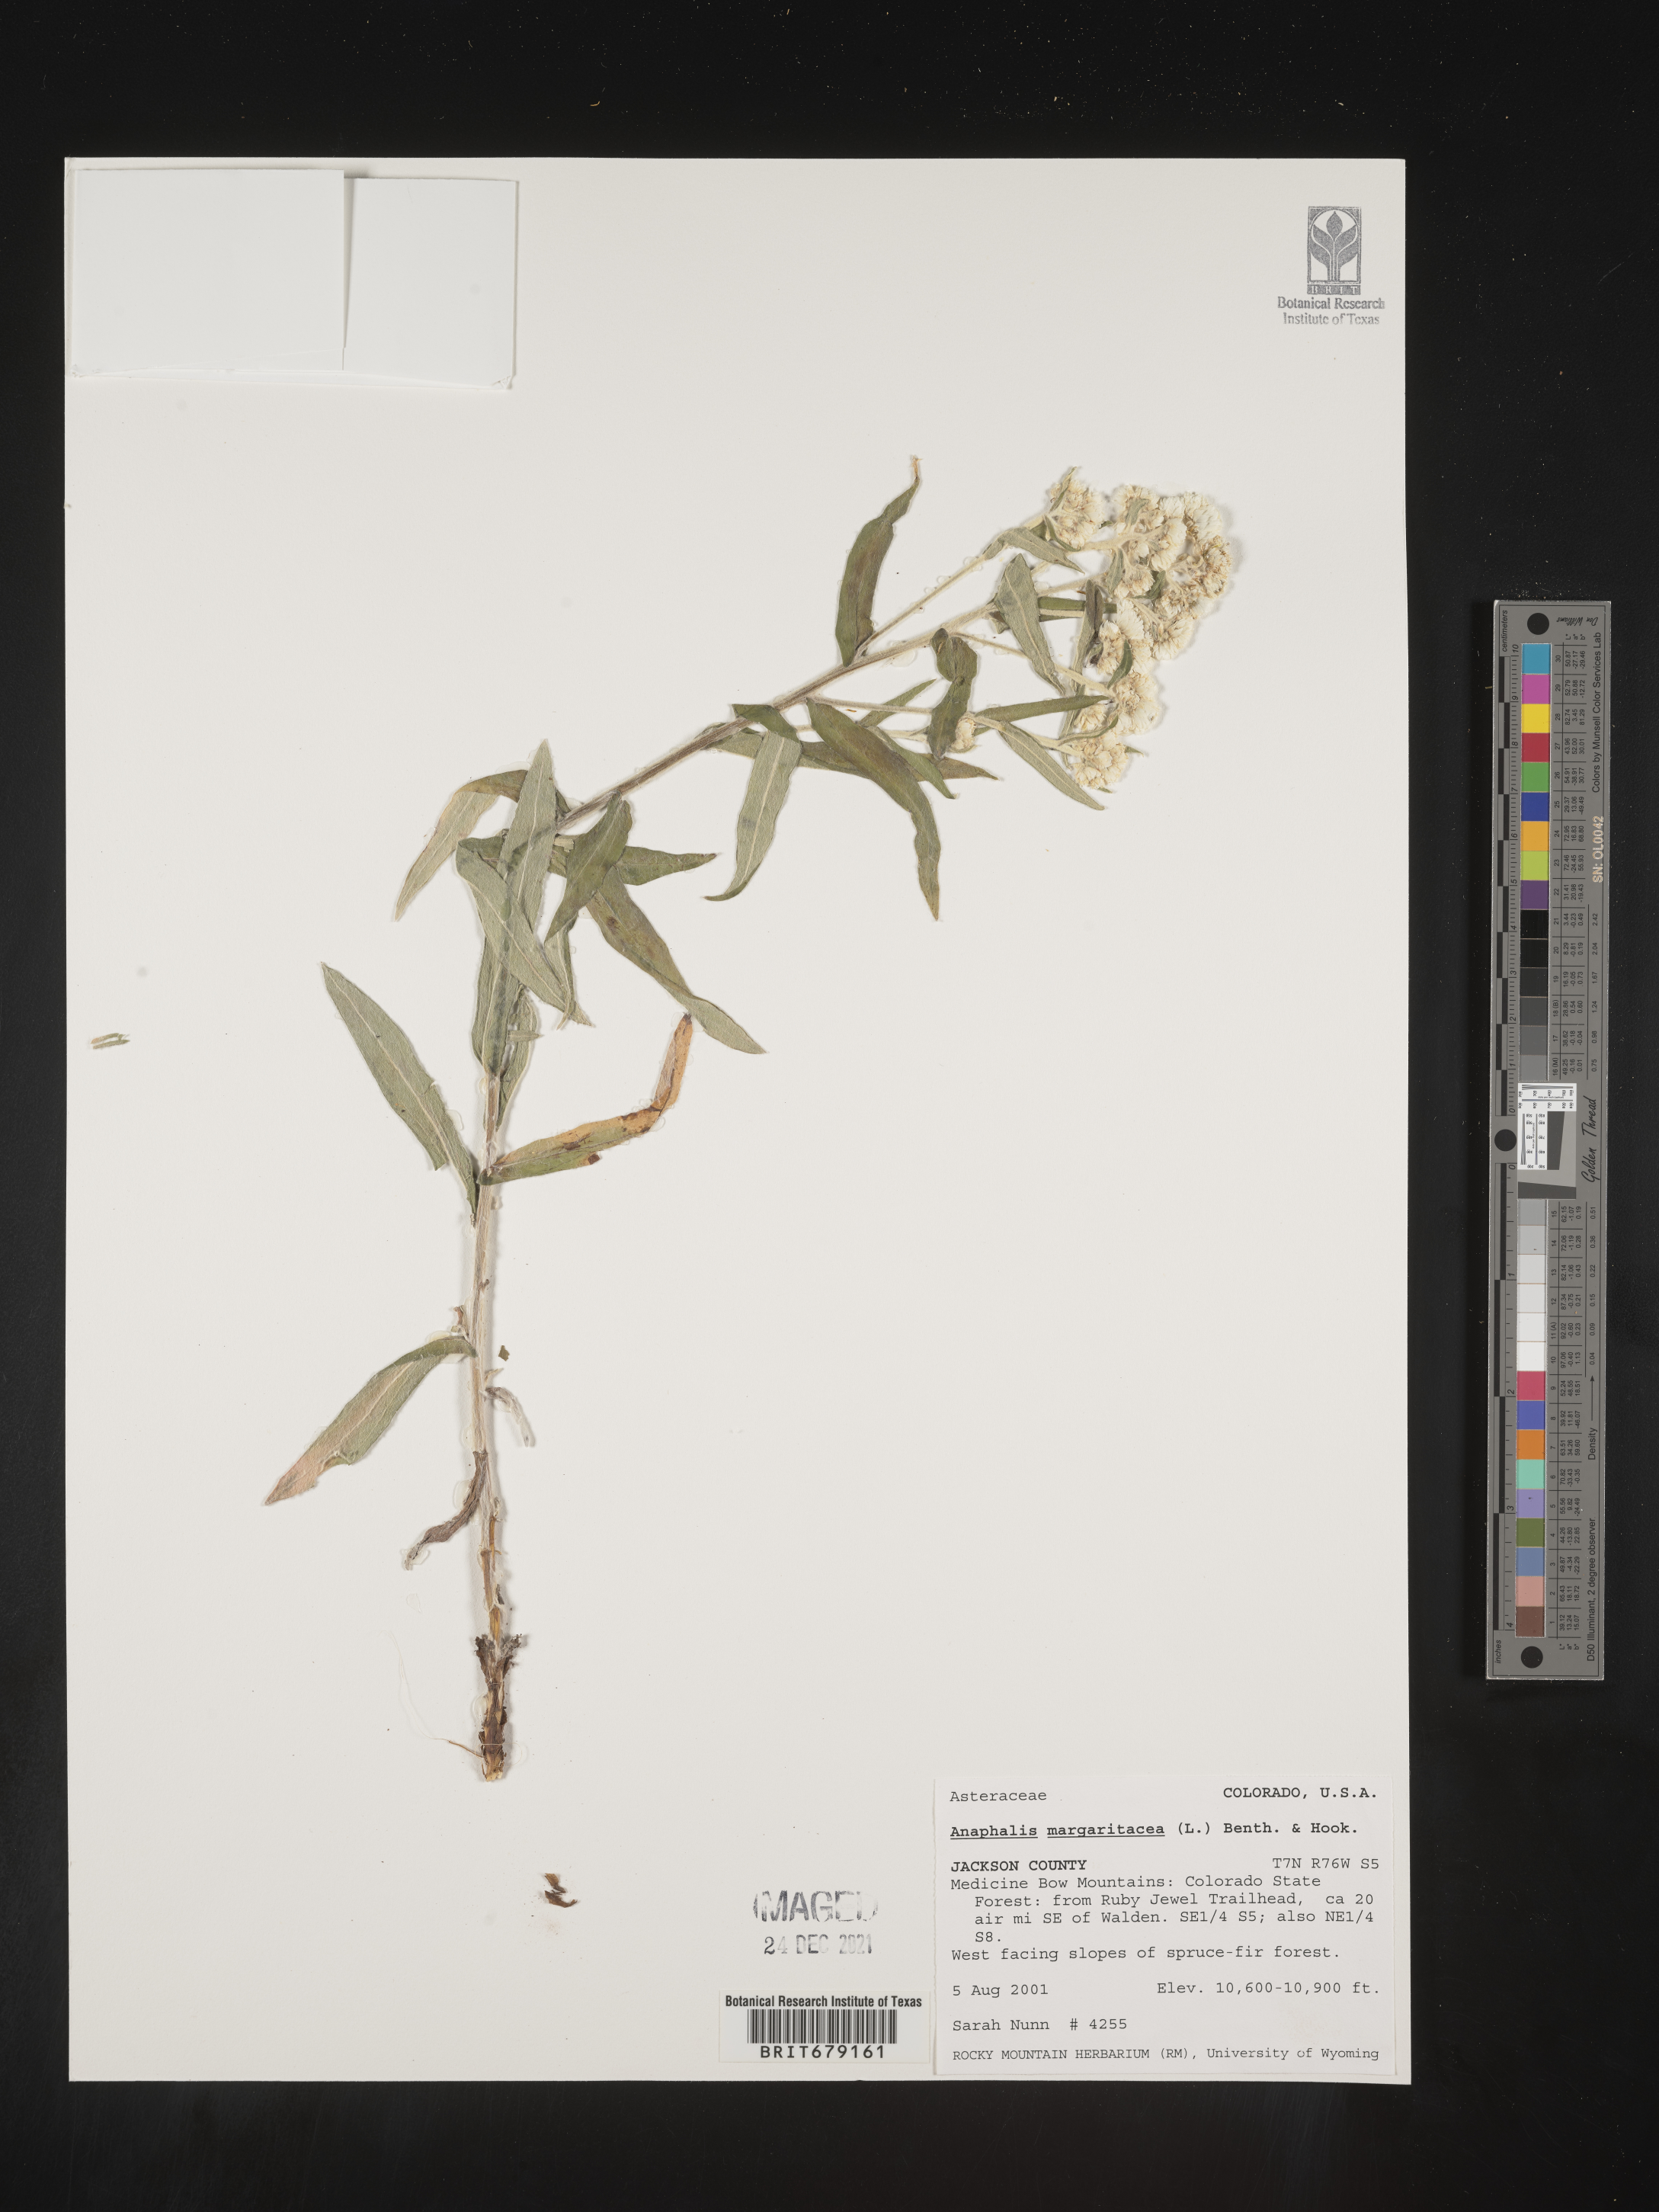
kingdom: Plantae
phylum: Tracheophyta
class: Magnoliopsida
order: Asterales
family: Asteraceae
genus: Anaphalis
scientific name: Anaphalis margaritacea
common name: Pearly everlasting
